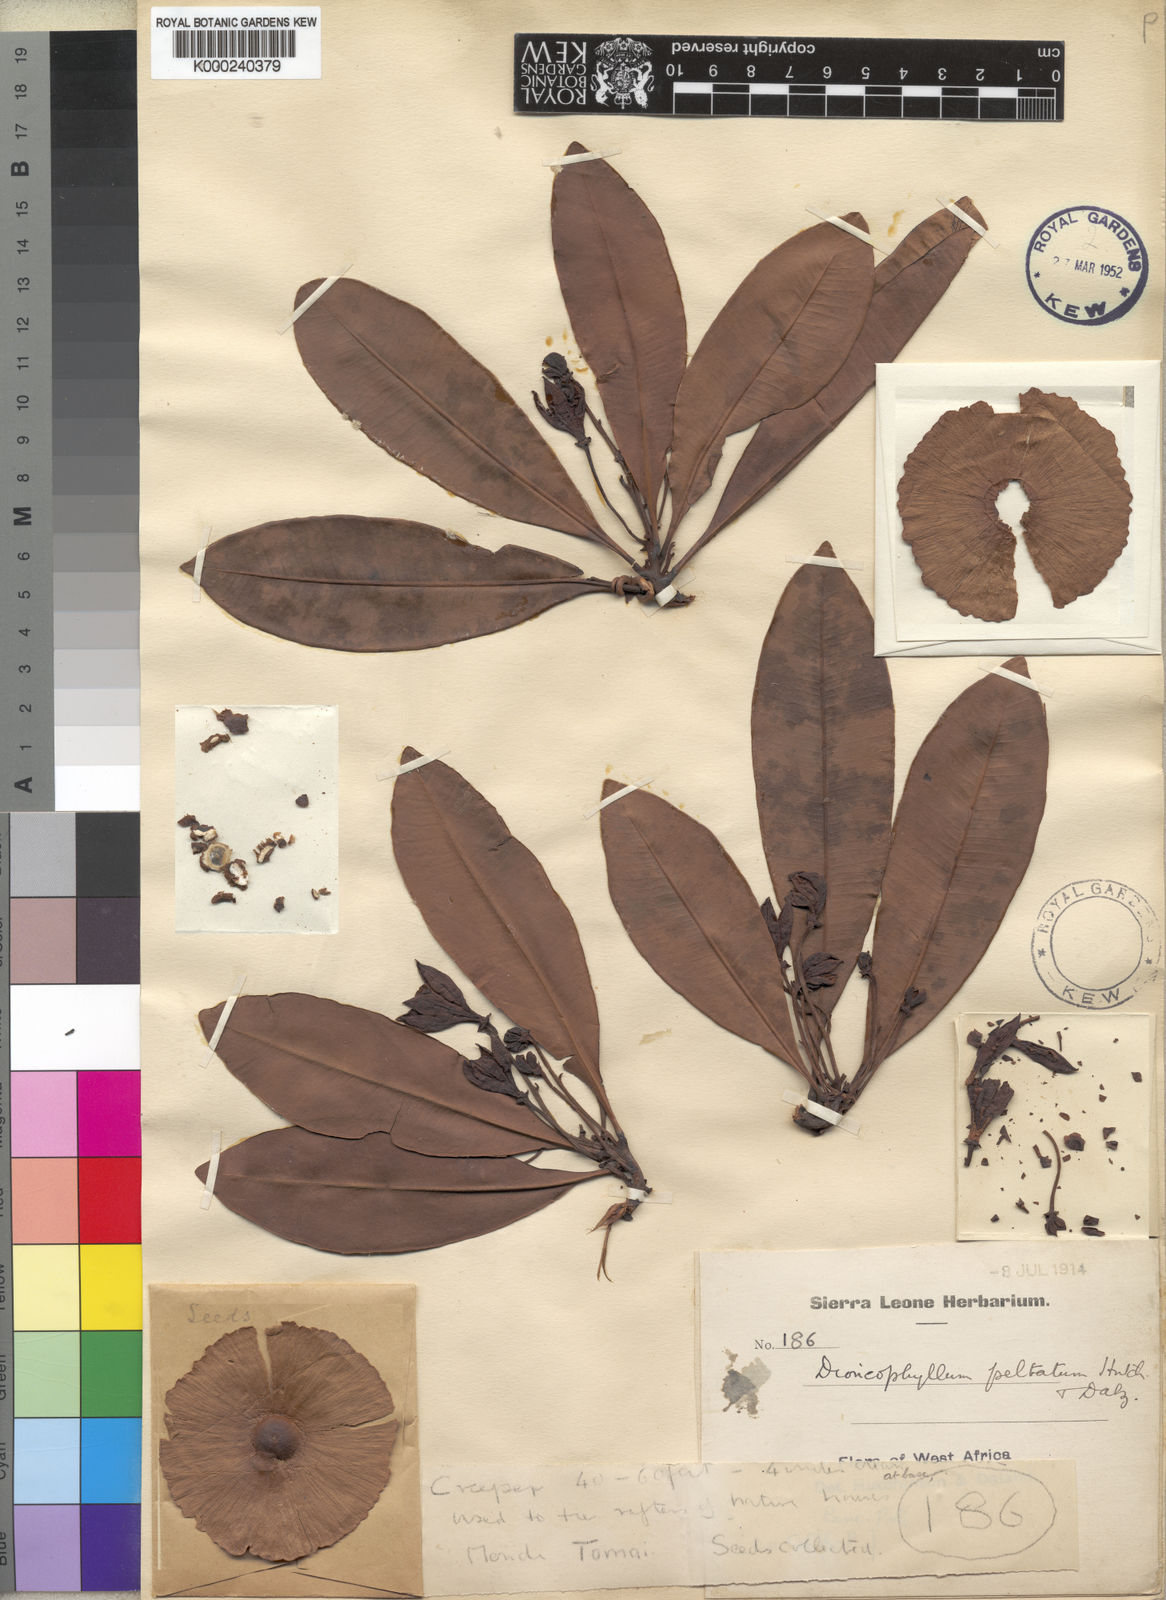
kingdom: Plantae
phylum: Tracheophyta
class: Magnoliopsida
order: Caryophyllales
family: Dioncophyllaceae
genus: Triphyophyllum
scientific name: Triphyophyllum peltatum
